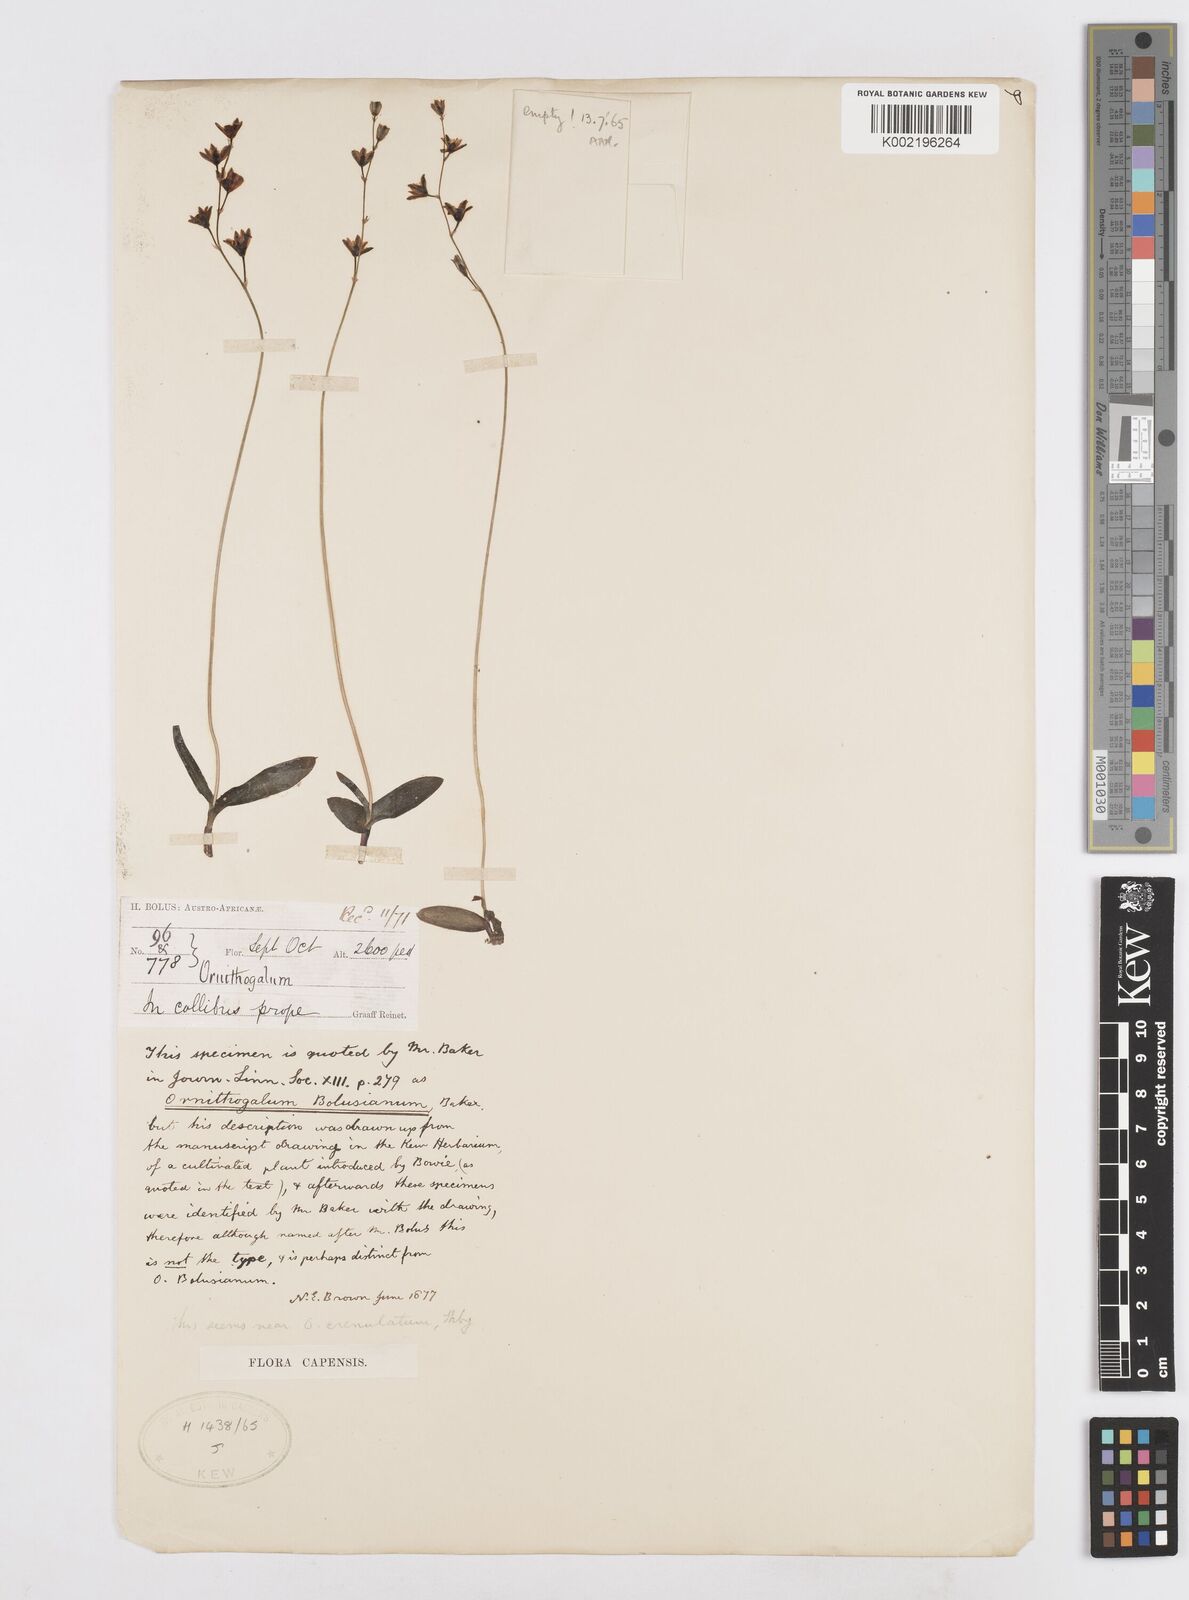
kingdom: Plantae
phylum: Tracheophyta
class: Liliopsida
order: Asparagales
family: Asparagaceae
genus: Ornithogalum
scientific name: Ornithogalum graminifolium
